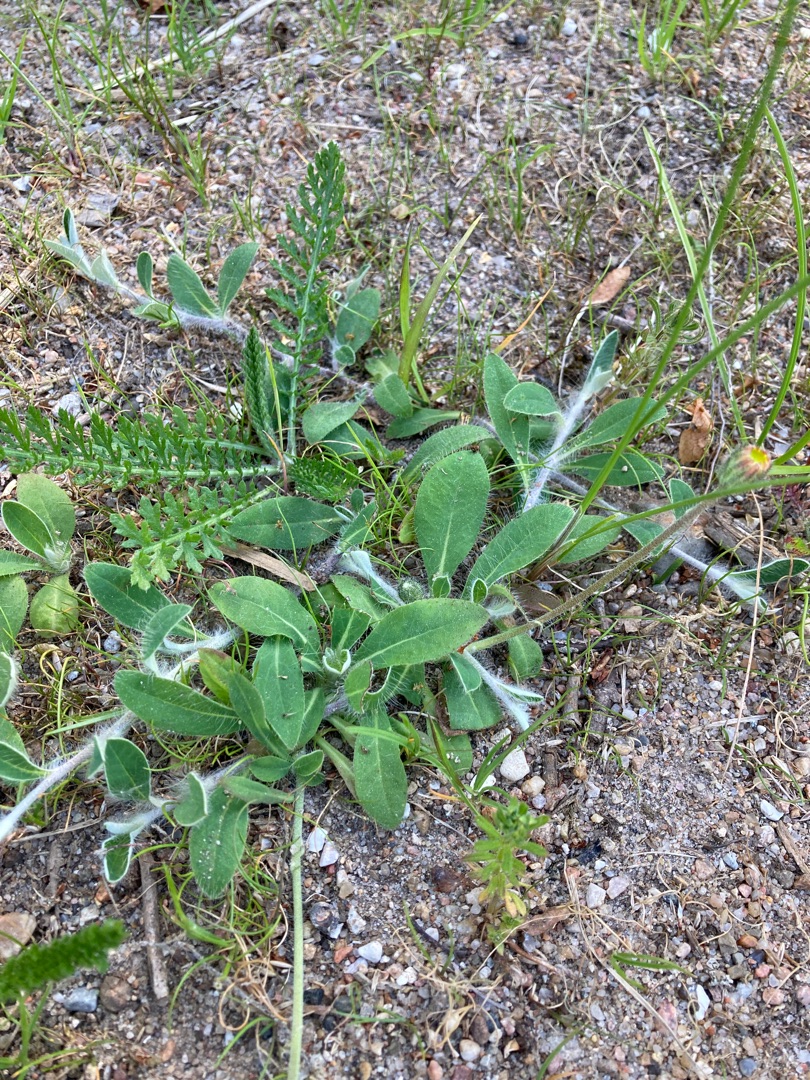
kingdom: Plantae
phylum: Tracheophyta
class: Magnoliopsida
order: Asterales
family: Asteraceae
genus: Pilosella
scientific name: Pilosella officinarum
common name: Håret høgeurt
